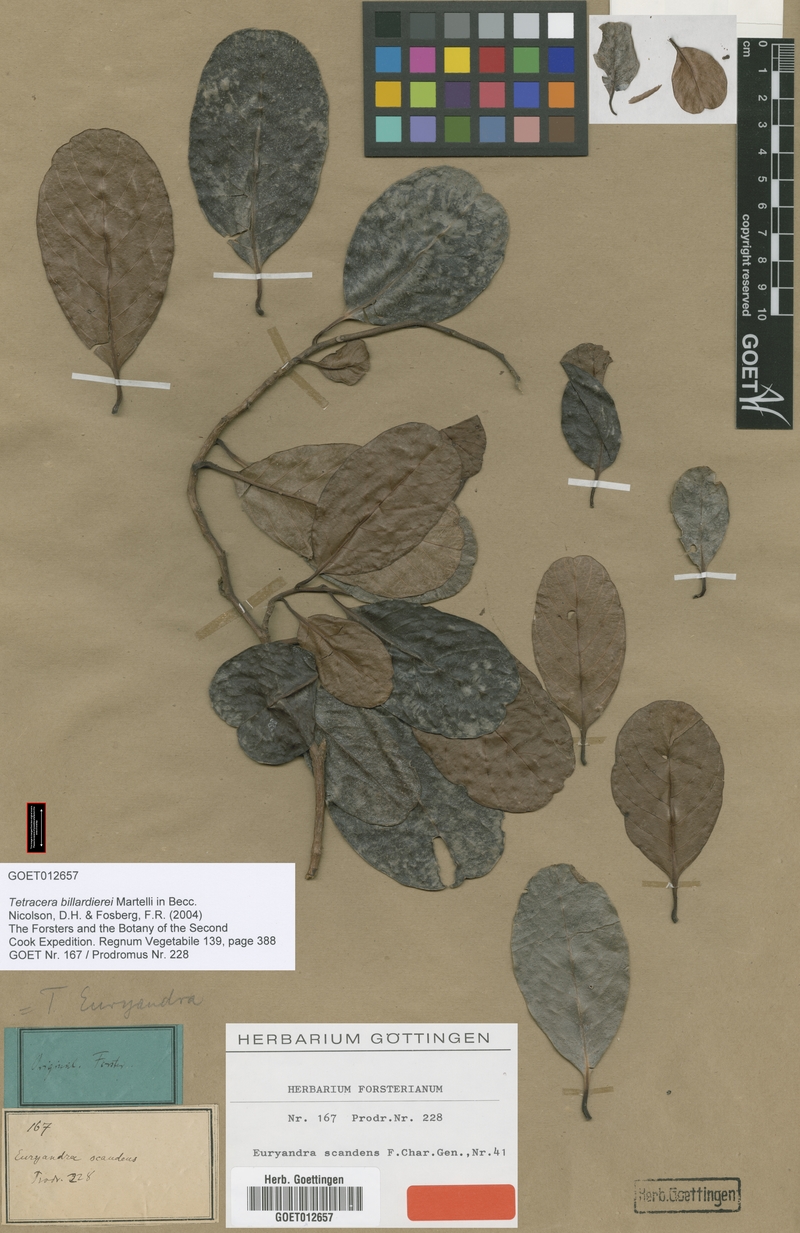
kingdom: Plantae
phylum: Tracheophyta
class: Magnoliopsida
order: Dilleniales
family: Dilleniaceae
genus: Tetracera
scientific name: Tetracera sarmentosa
